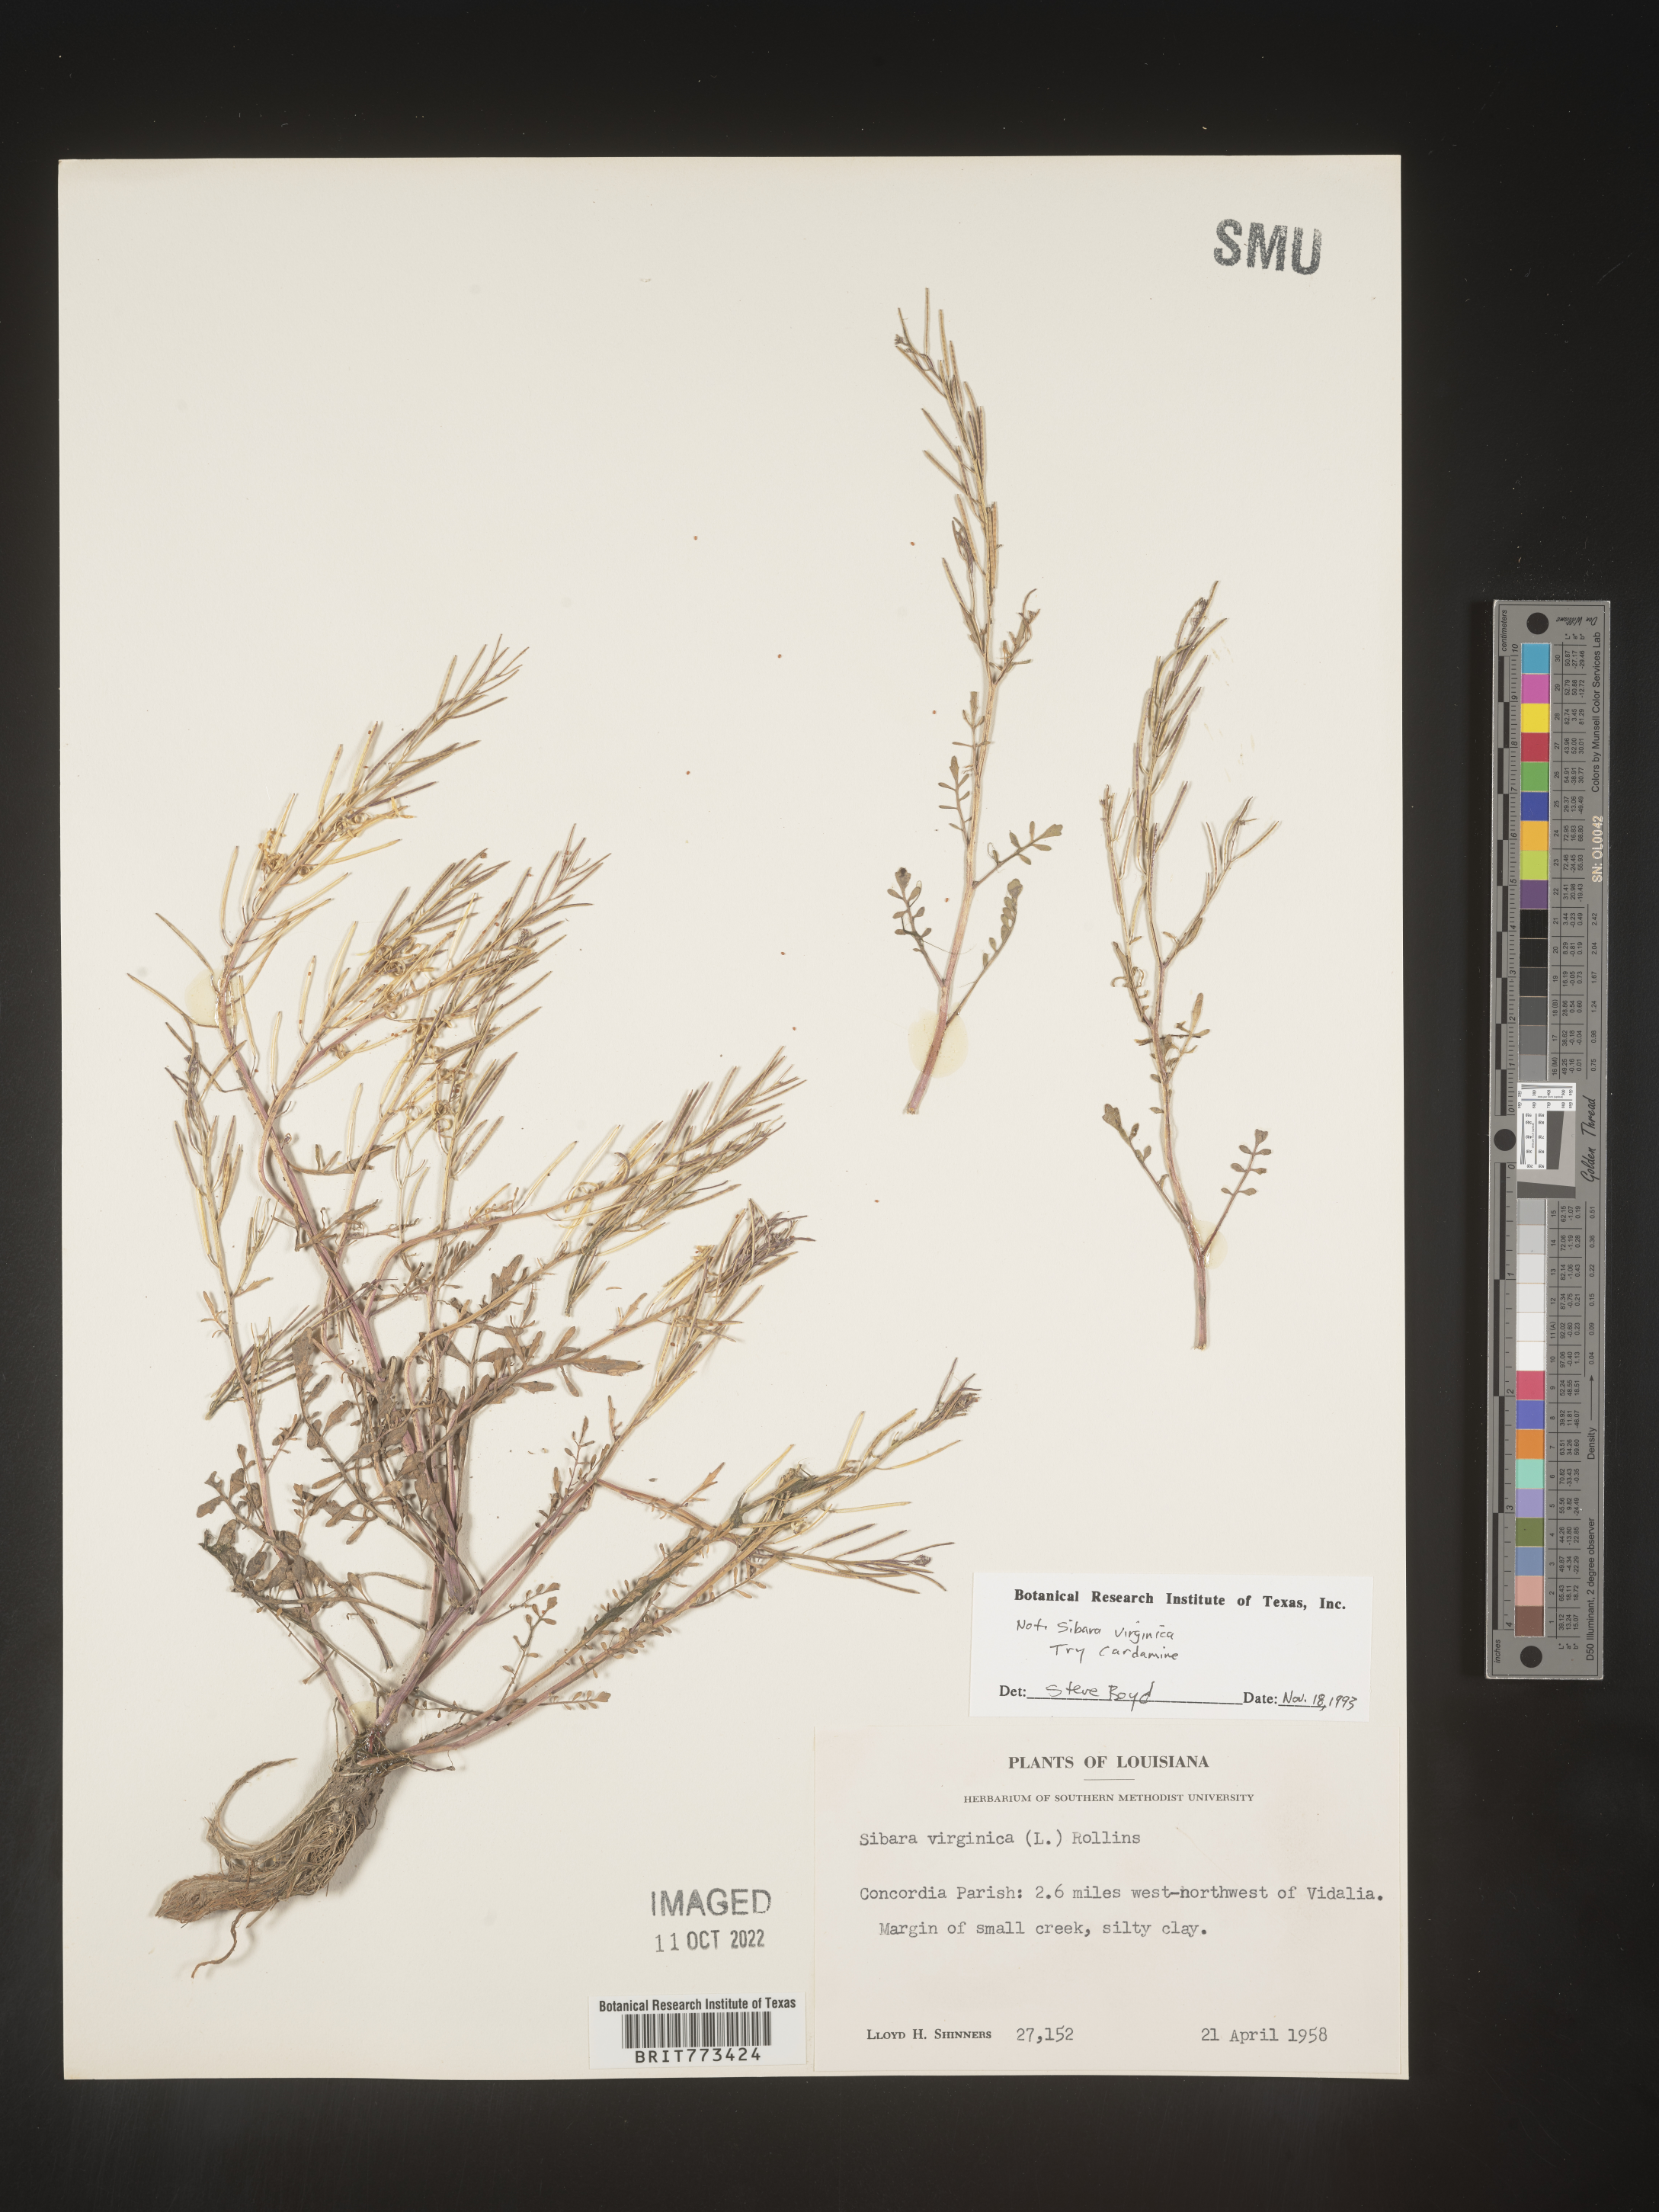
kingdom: Plantae
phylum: Tracheophyta
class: Magnoliopsida
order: Brassicales
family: Brassicaceae
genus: Cardamine
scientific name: Cardamine
